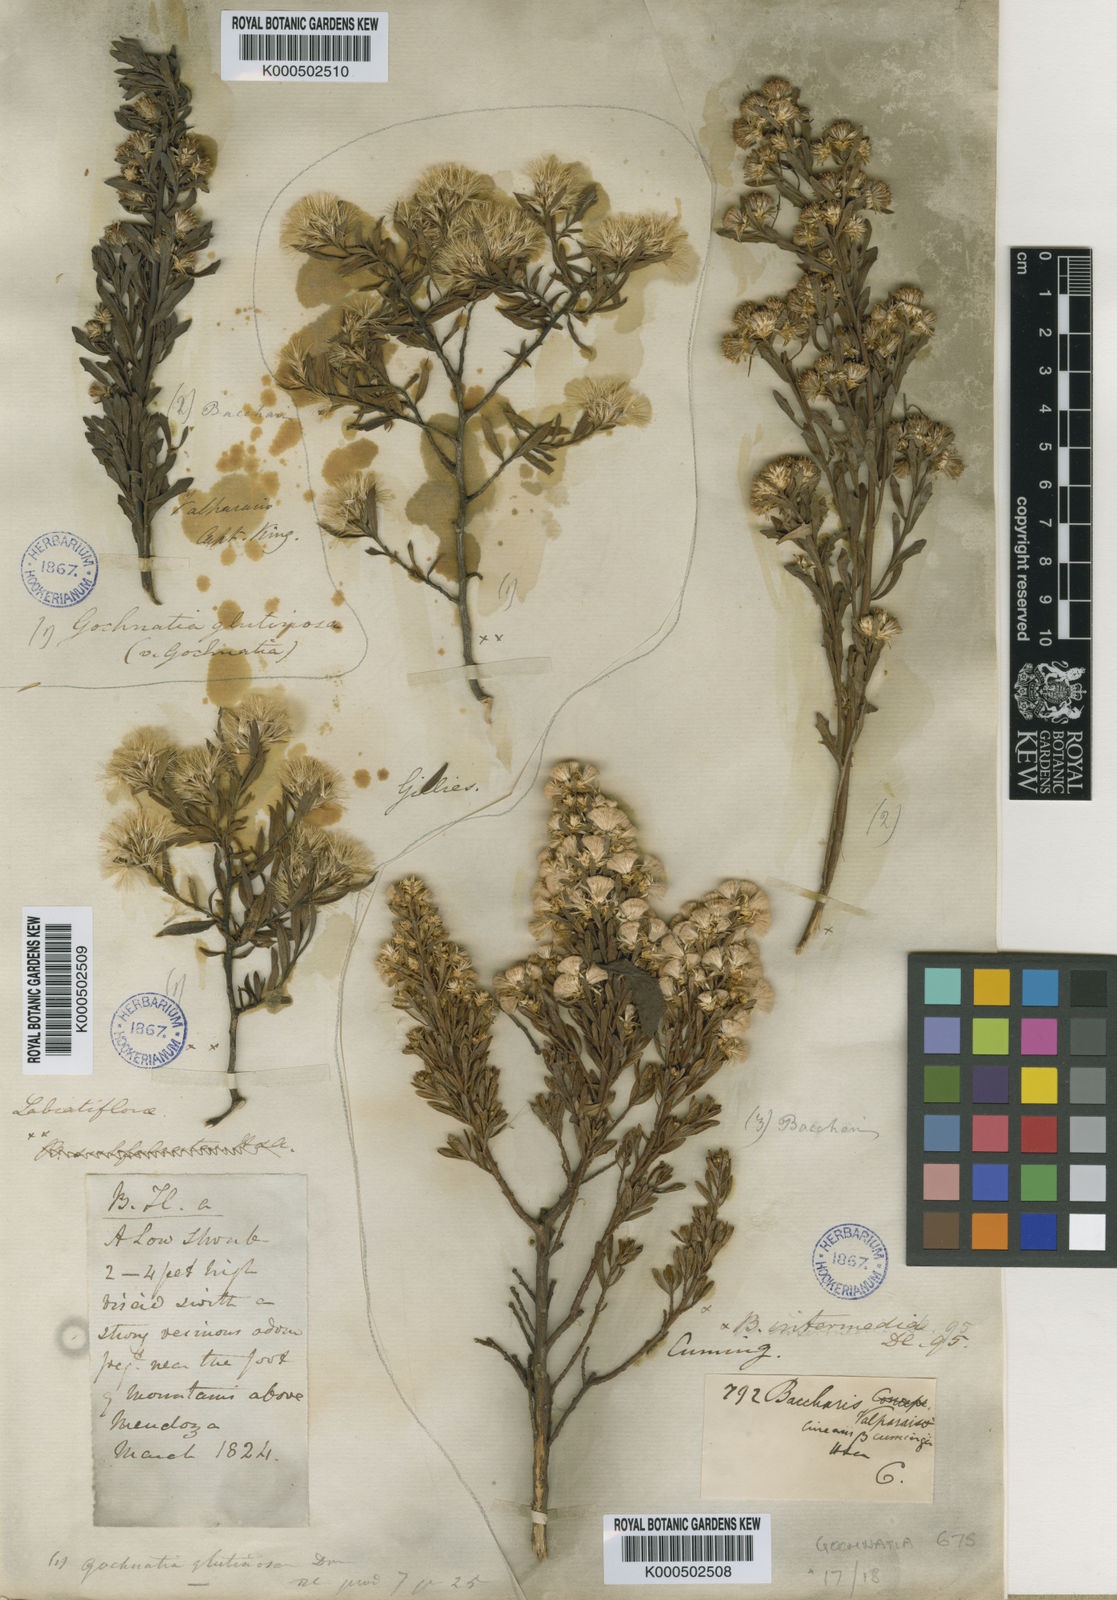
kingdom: Plantae
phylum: Tracheophyta
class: Magnoliopsida
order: Asterales
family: Asteraceae
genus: Gochnatia
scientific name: Gochnatia glutinosa
